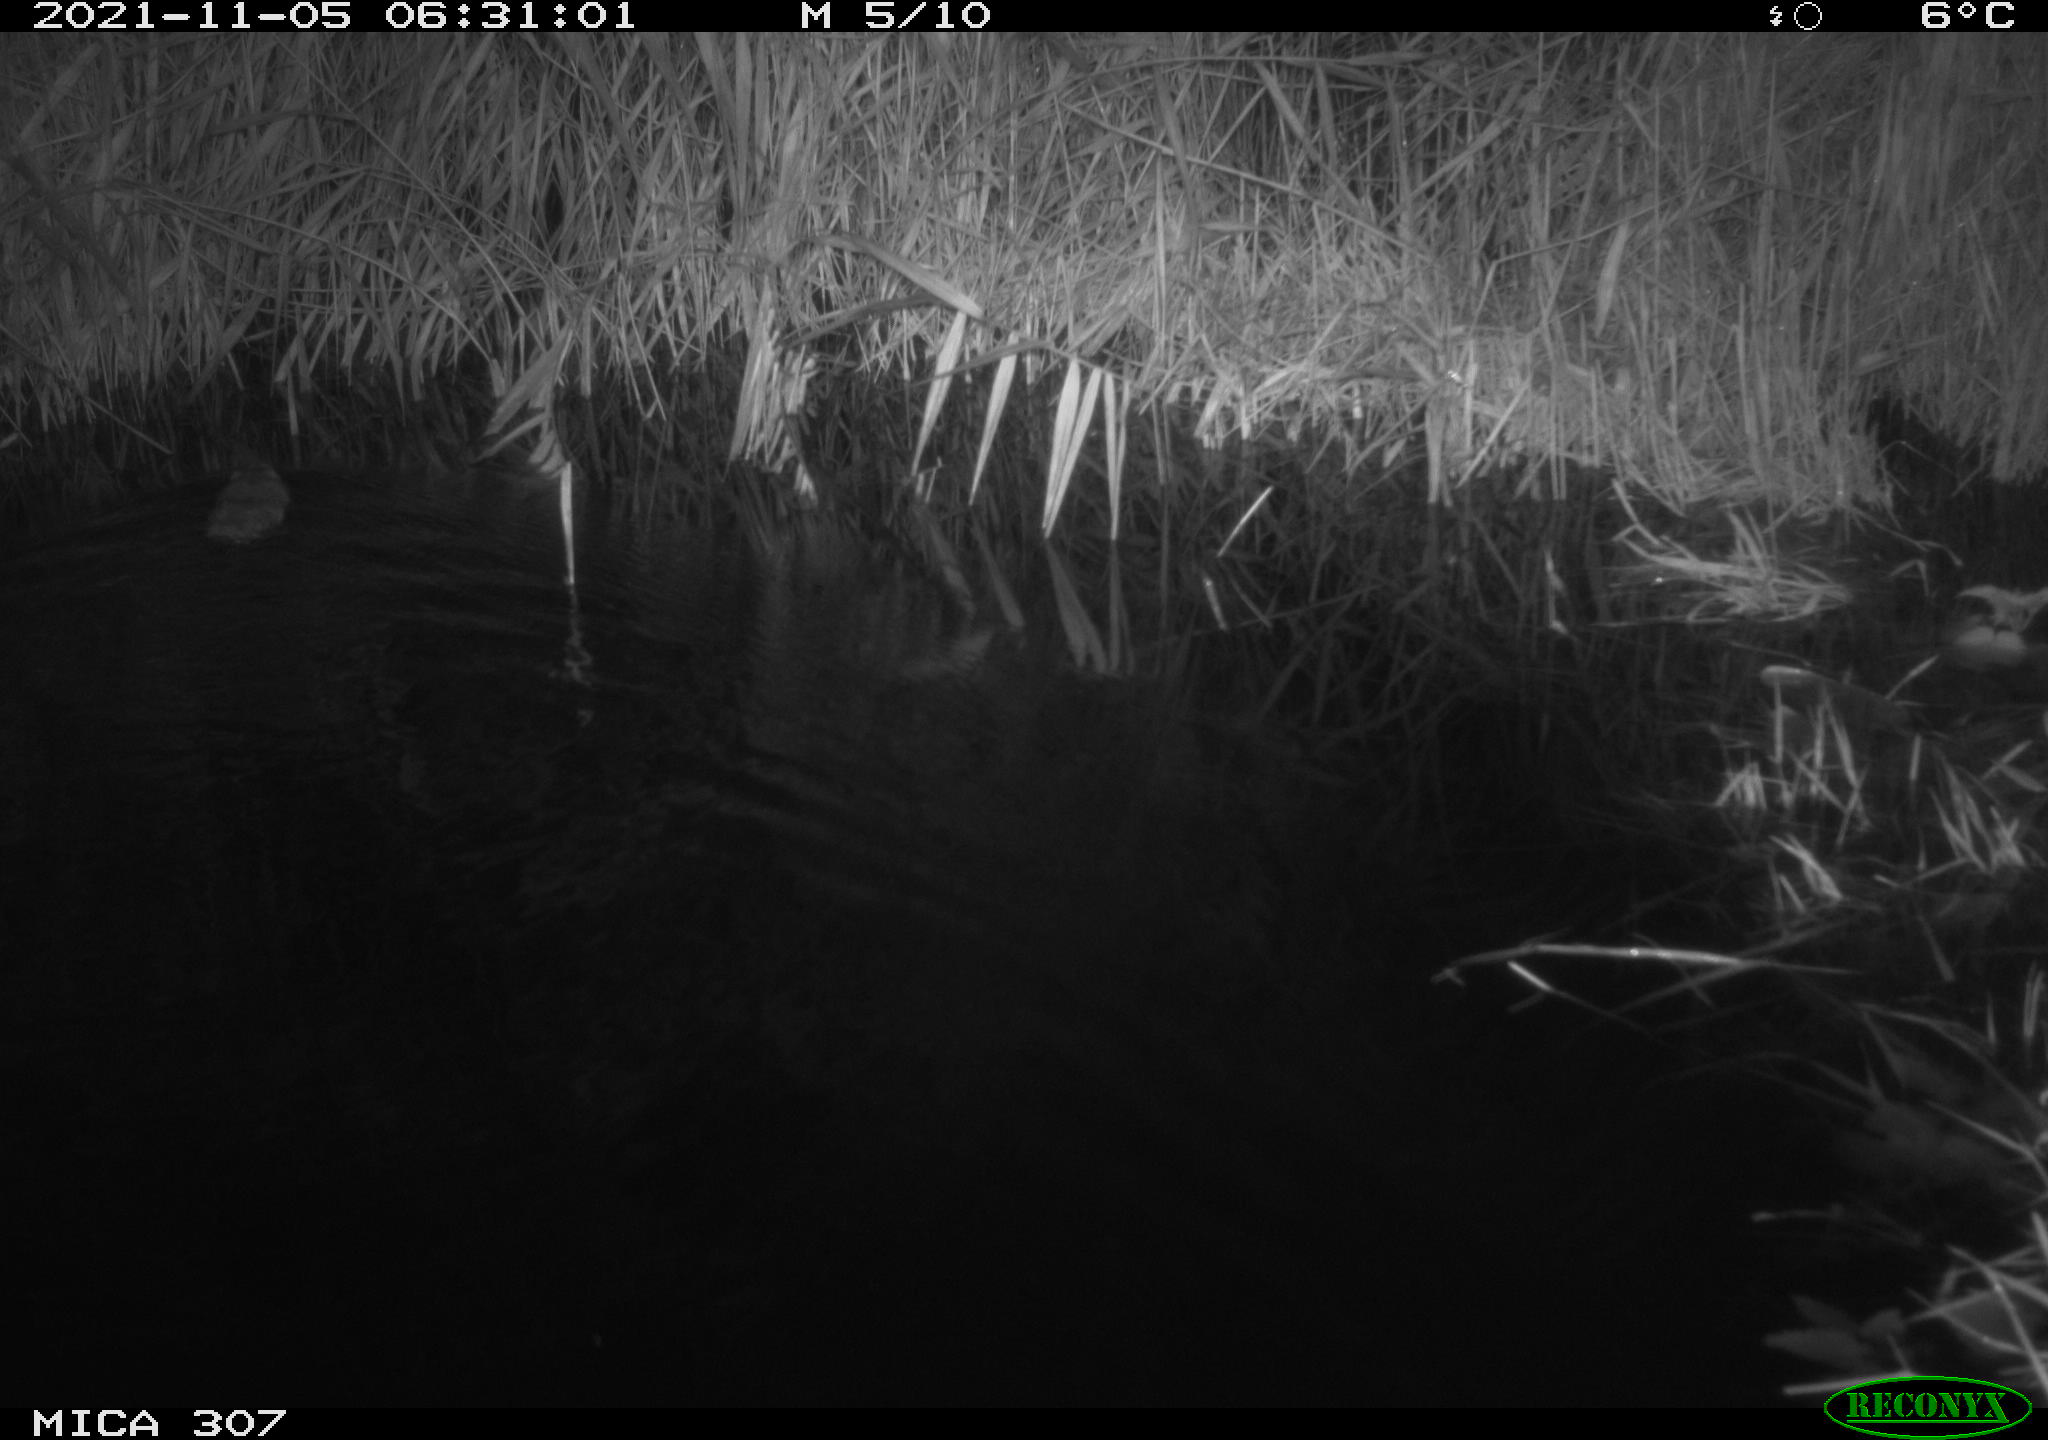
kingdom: Animalia
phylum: Chordata
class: Mammalia
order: Rodentia
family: Cricetidae
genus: Ondatra
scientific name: Ondatra zibethicus
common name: Muskrat
